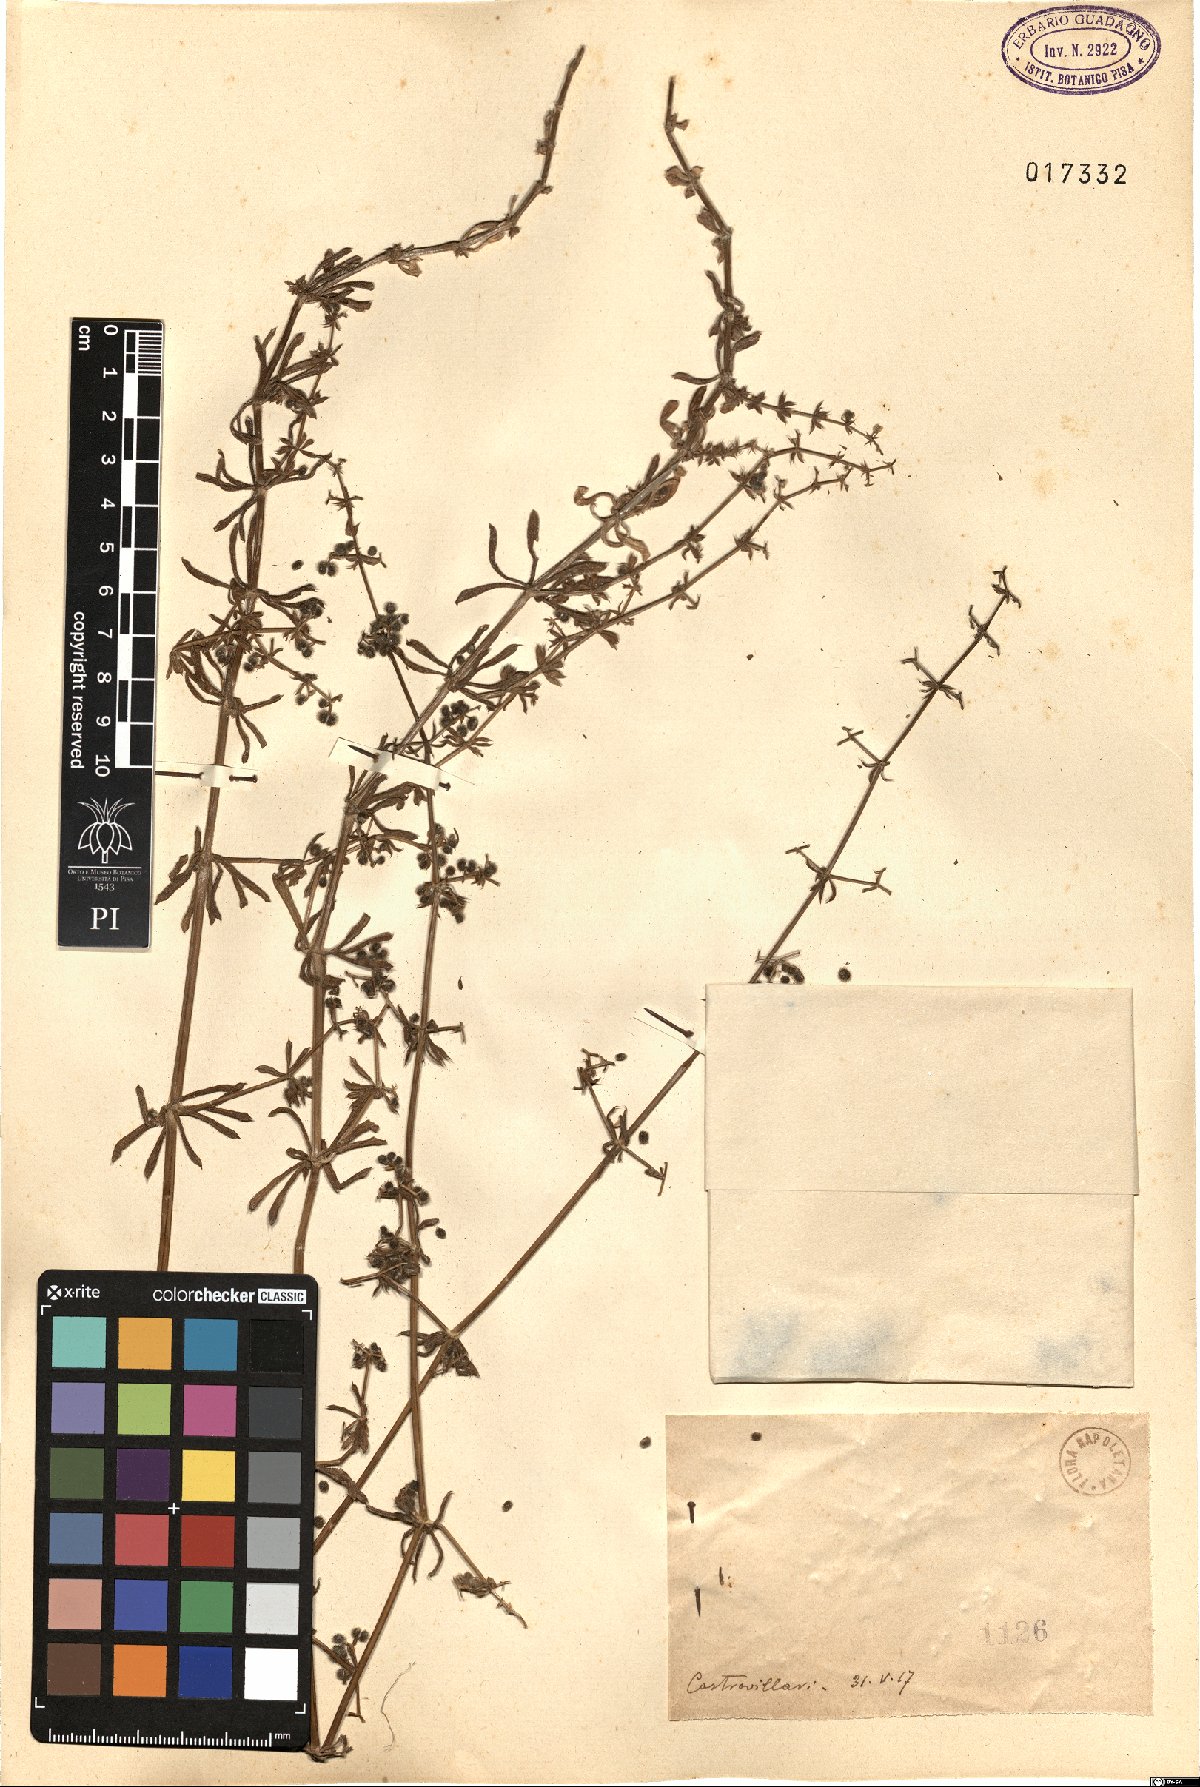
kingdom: Plantae
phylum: Tracheophyta
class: Magnoliopsida
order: Gentianales
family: Rubiaceae
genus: Galium
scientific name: Galium
